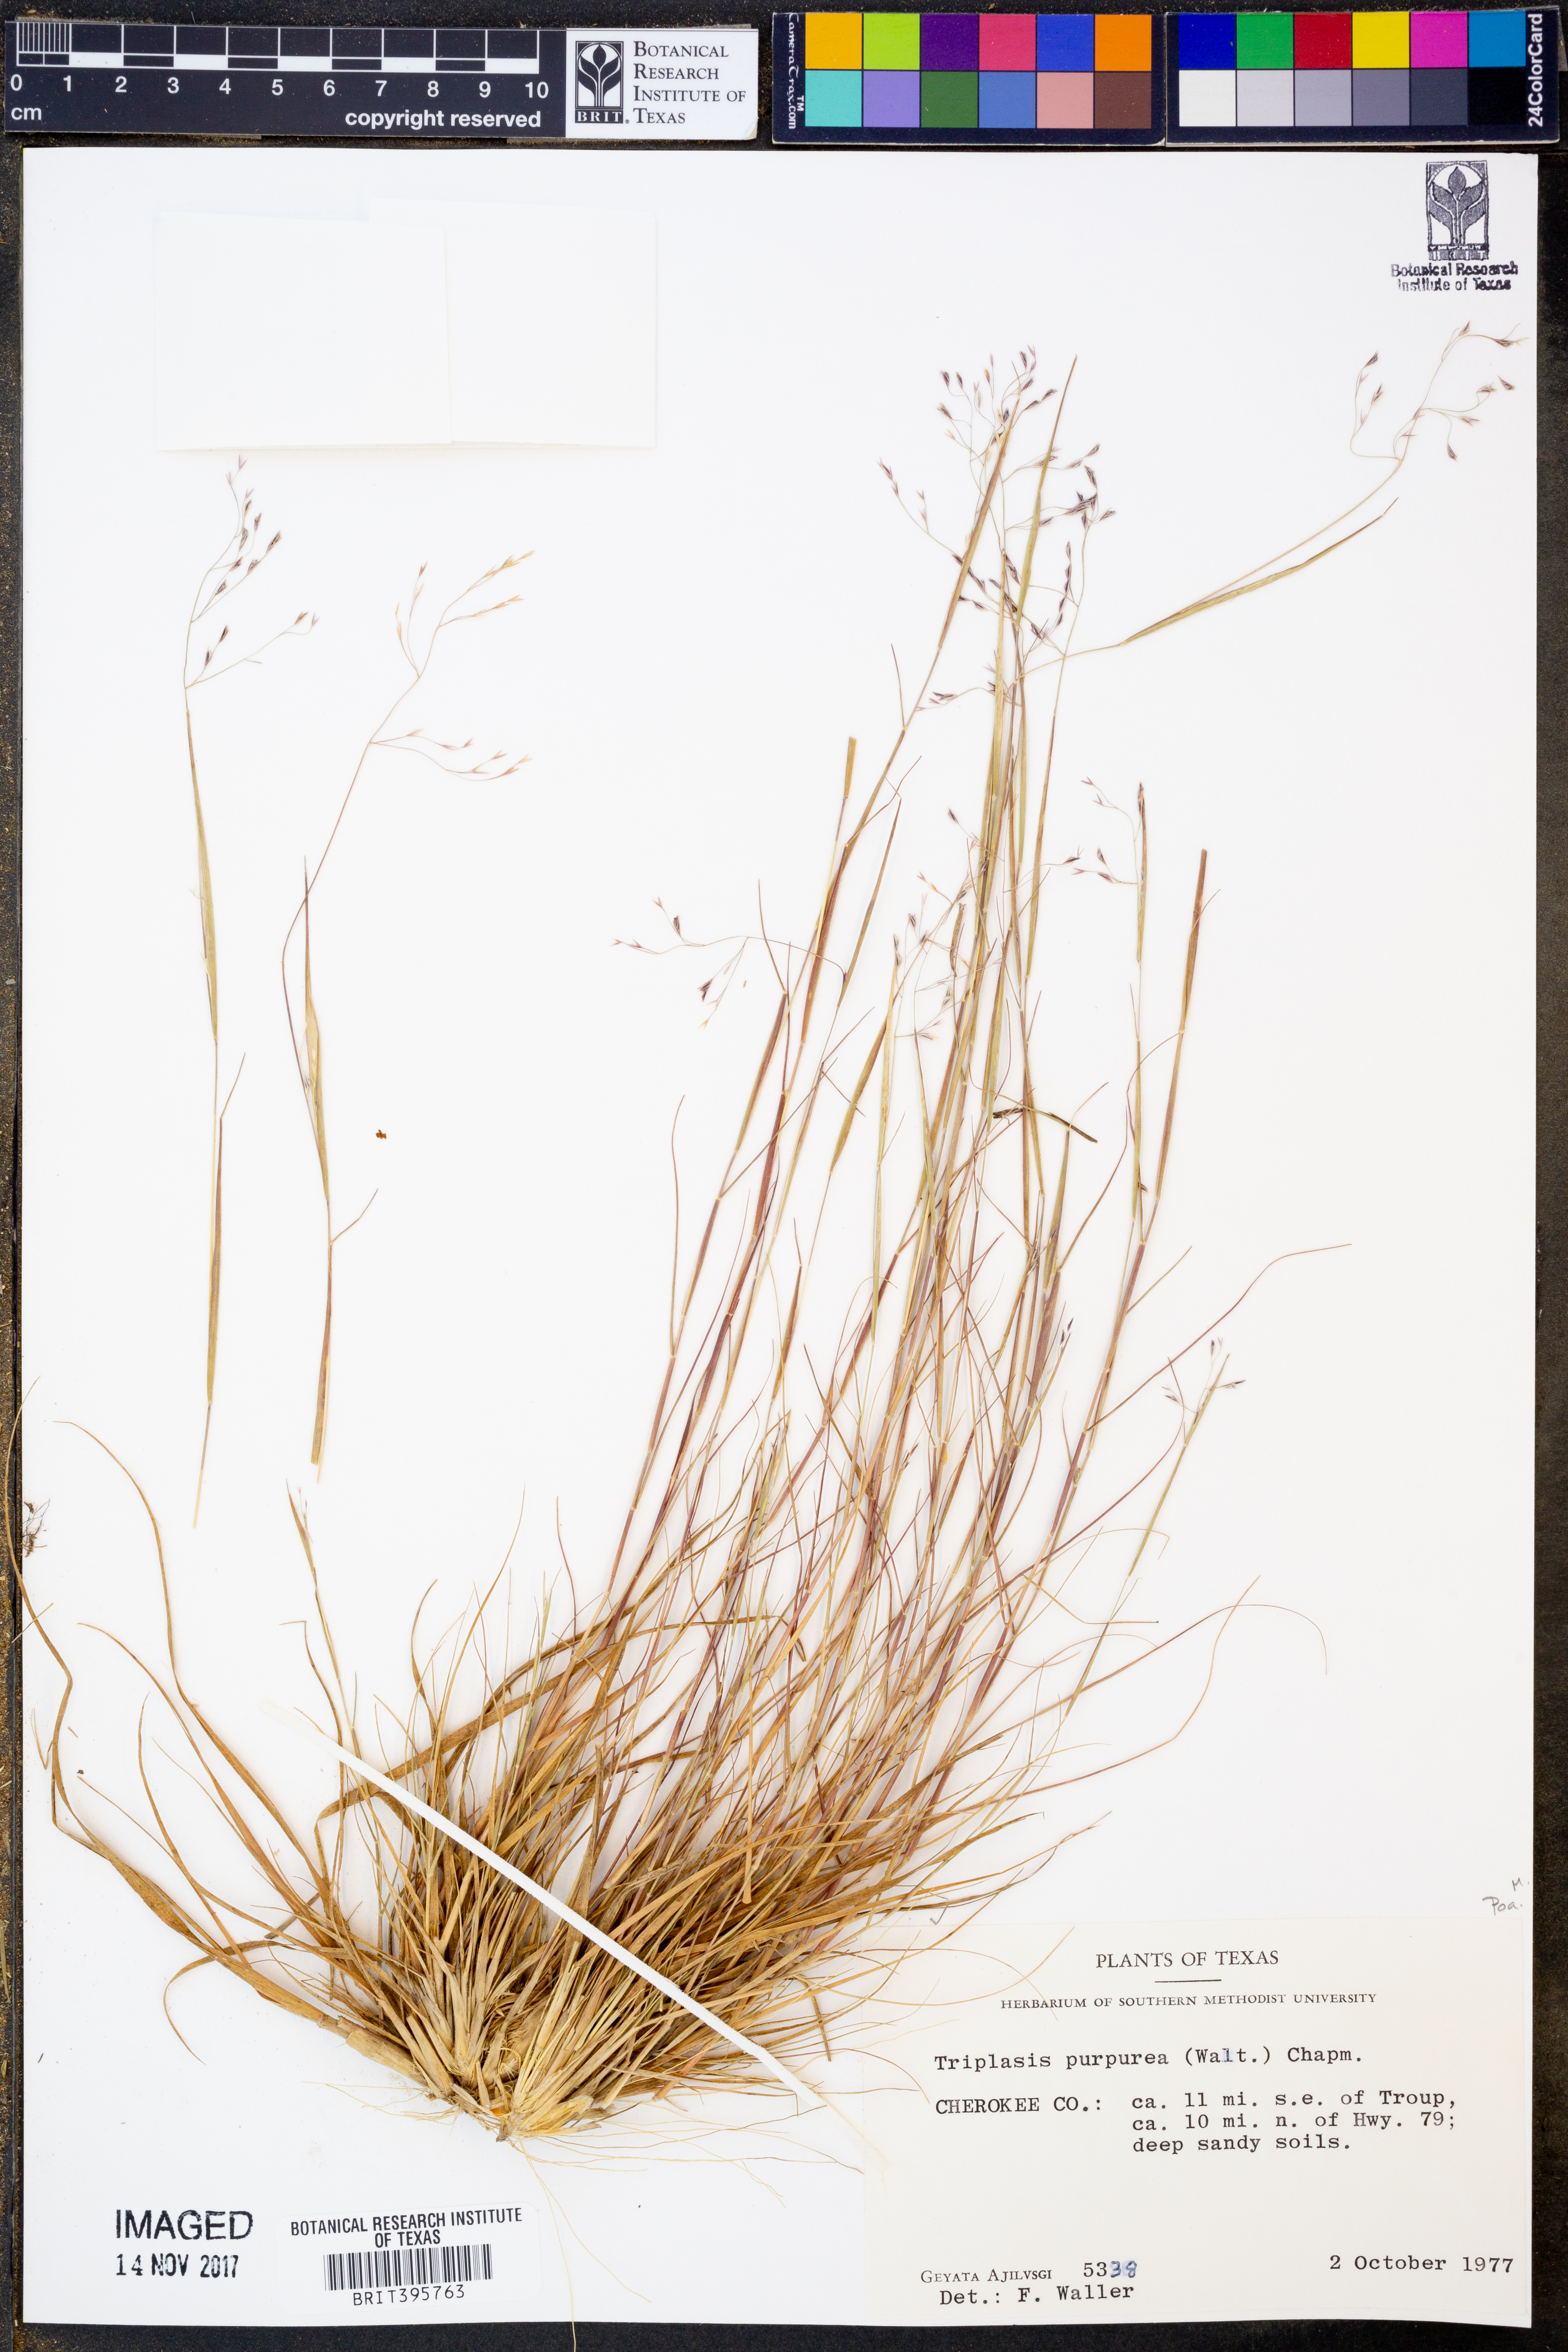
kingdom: Plantae
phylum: Tracheophyta
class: Liliopsida
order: Poales
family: Poaceae
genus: Triplasis
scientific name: Triplasis purpurea
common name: Purple sand grass
